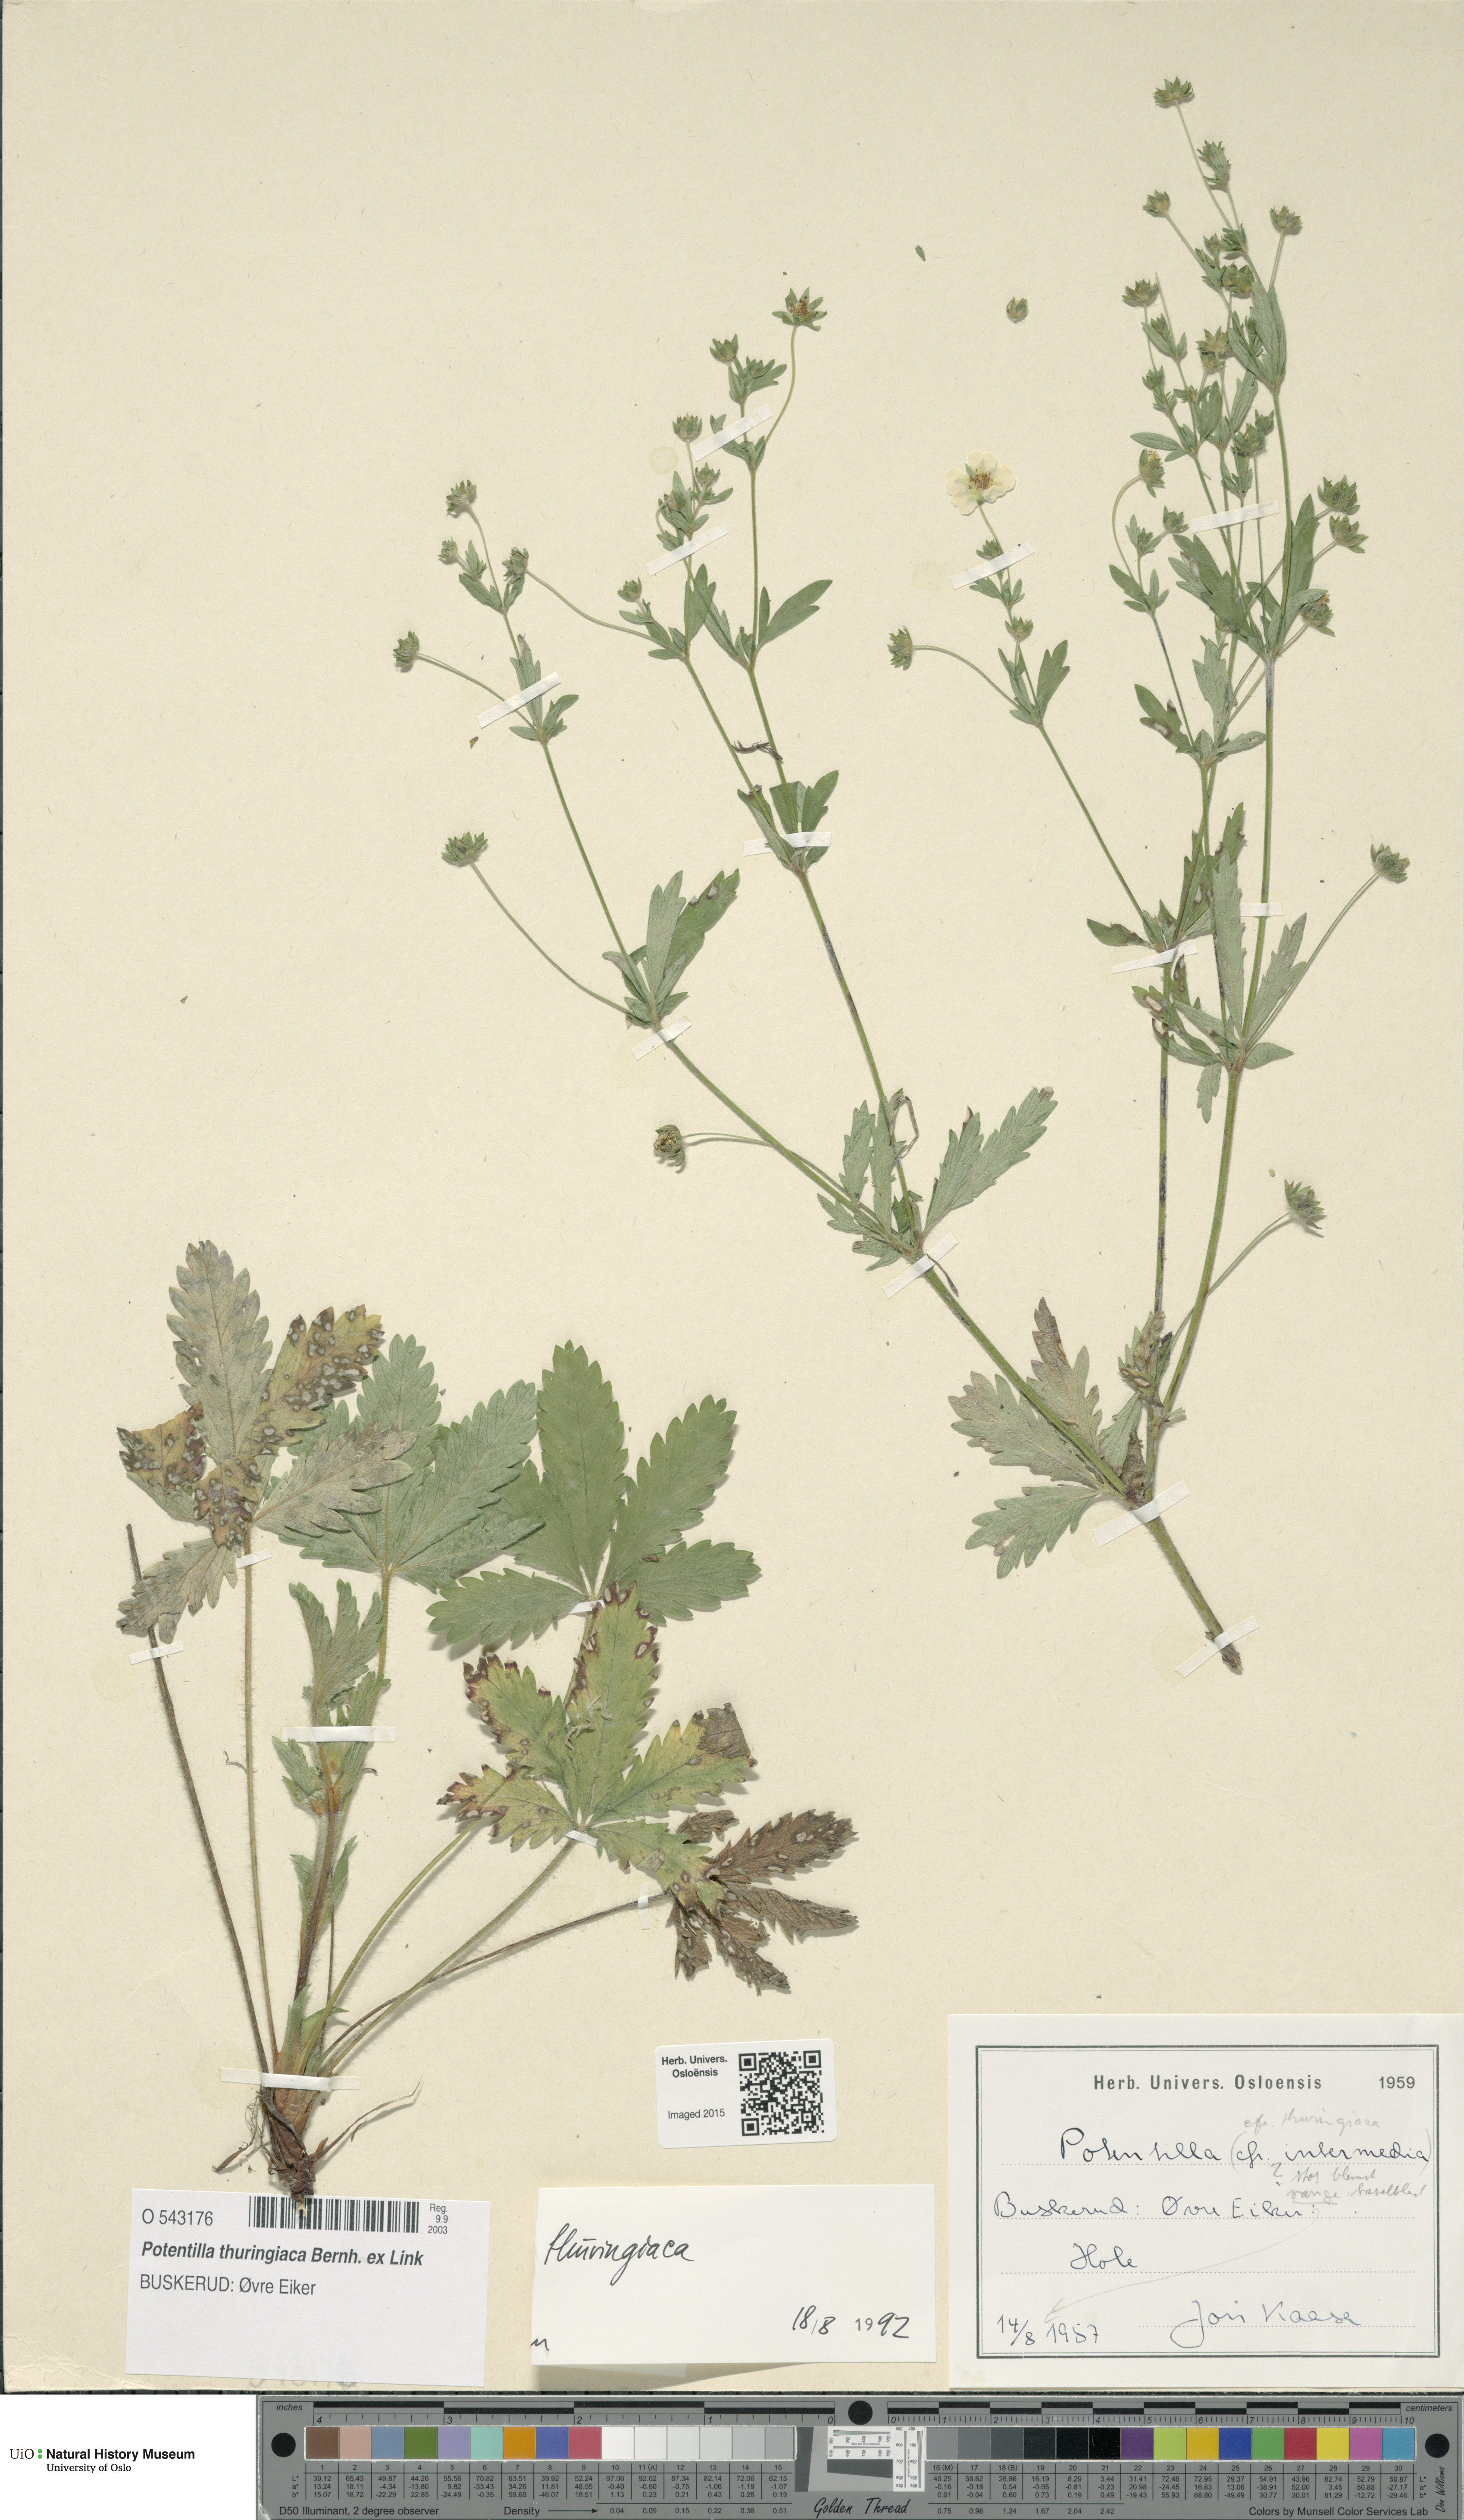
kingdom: Plantae
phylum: Tracheophyta
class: Magnoliopsida
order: Rosales
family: Rosaceae
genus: Potentilla
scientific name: Potentilla thuringiaca
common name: European cinquefoil
